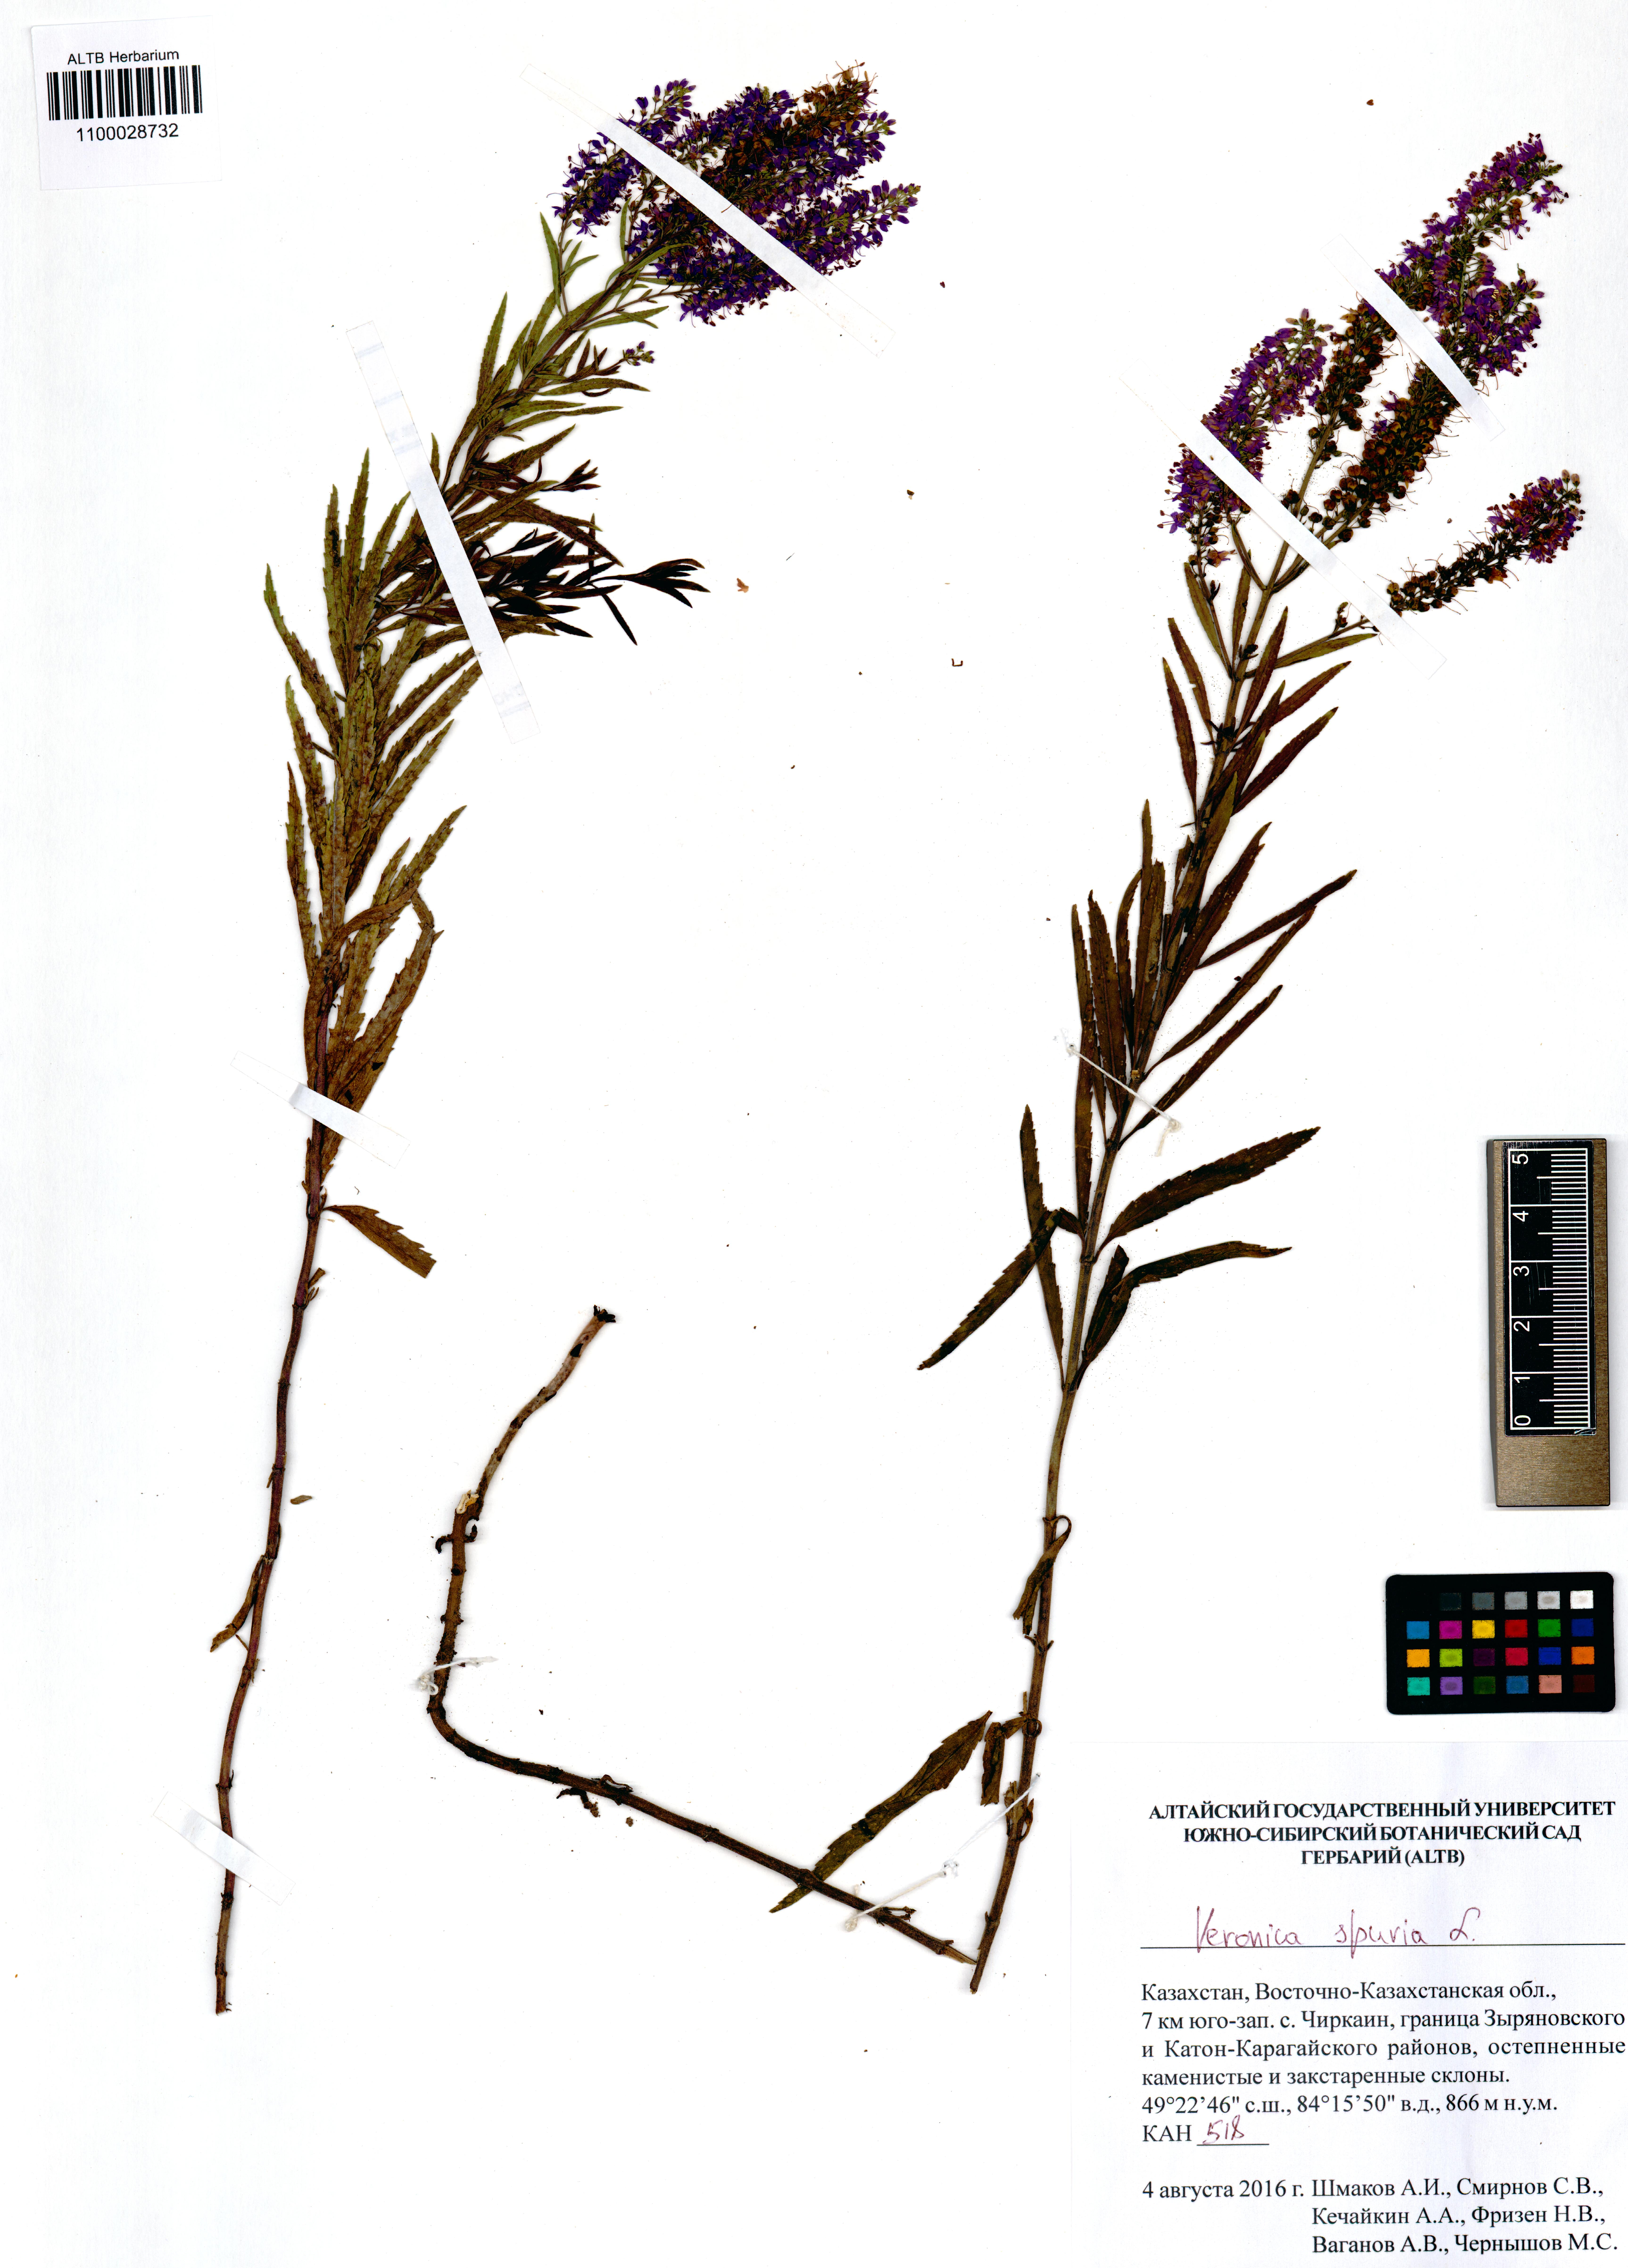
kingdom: Plantae
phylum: Tracheophyta
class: Magnoliopsida
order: Lamiales
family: Plantaginaceae
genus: Veronica
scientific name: Veronica spuria
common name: Bastard speedwell
